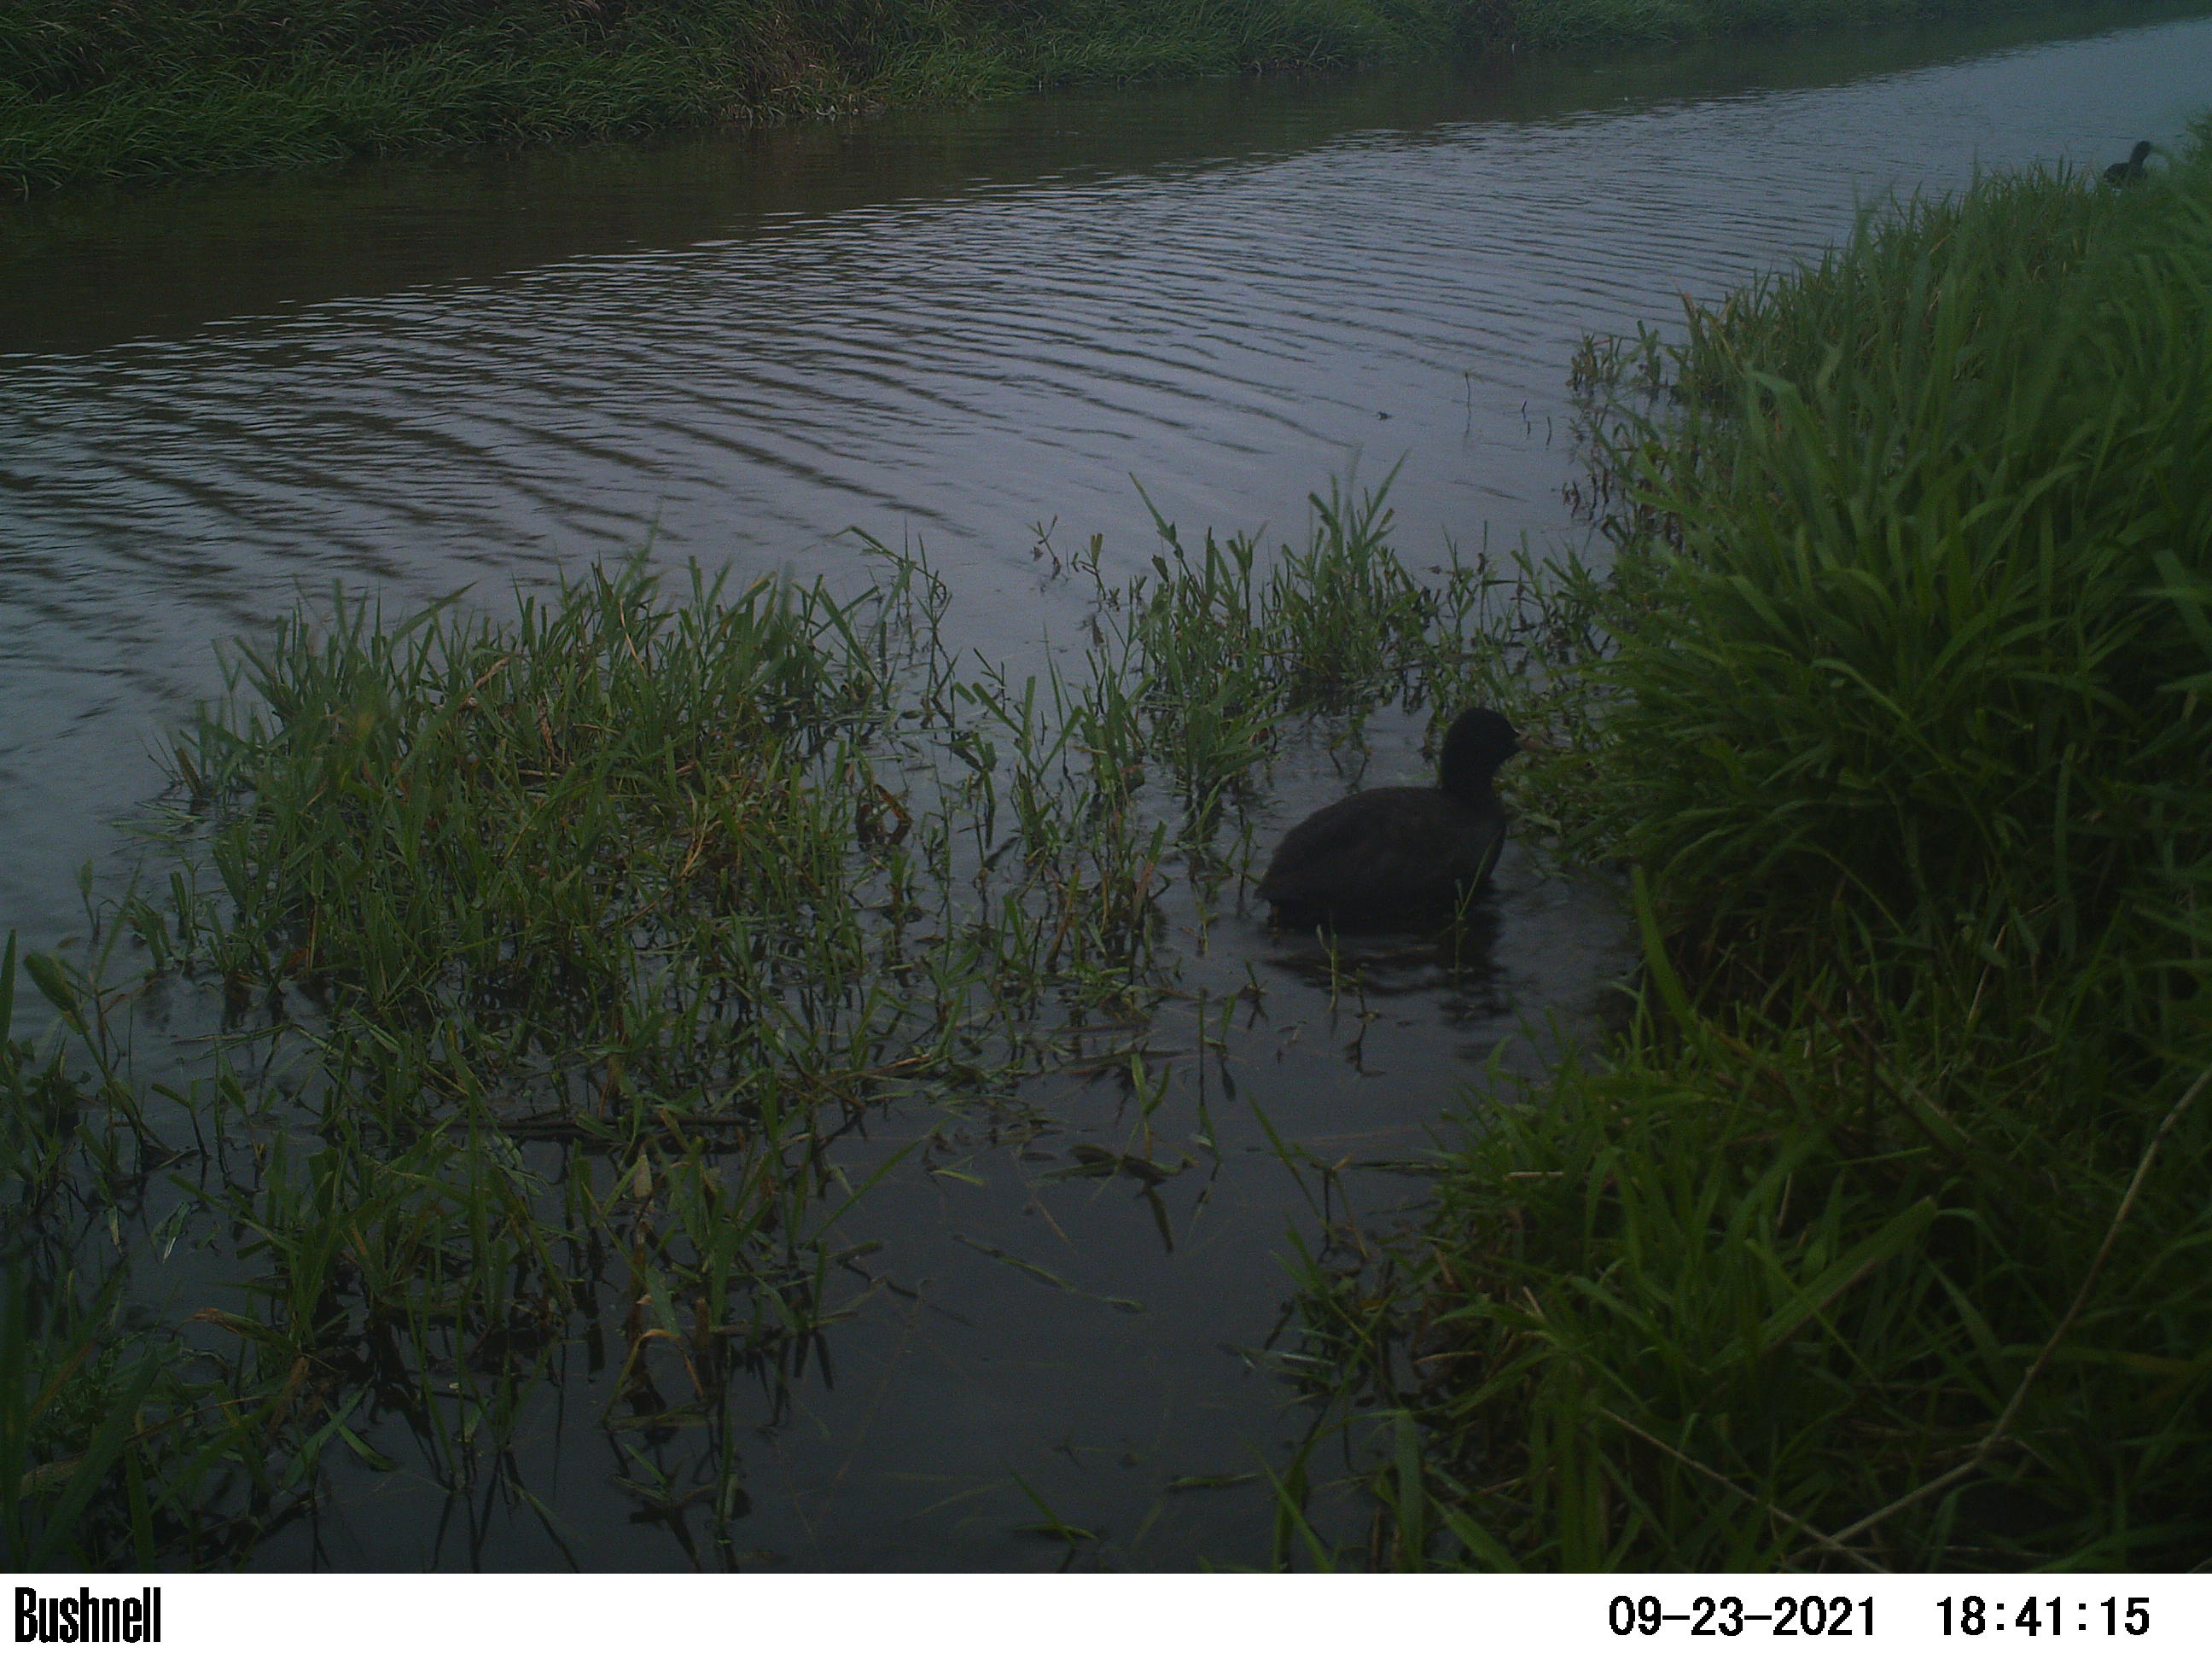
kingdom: Animalia
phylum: Chordata
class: Aves
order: Gruiformes
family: Rallidae
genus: Fulica
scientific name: Fulica atra
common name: Eurasian coot
